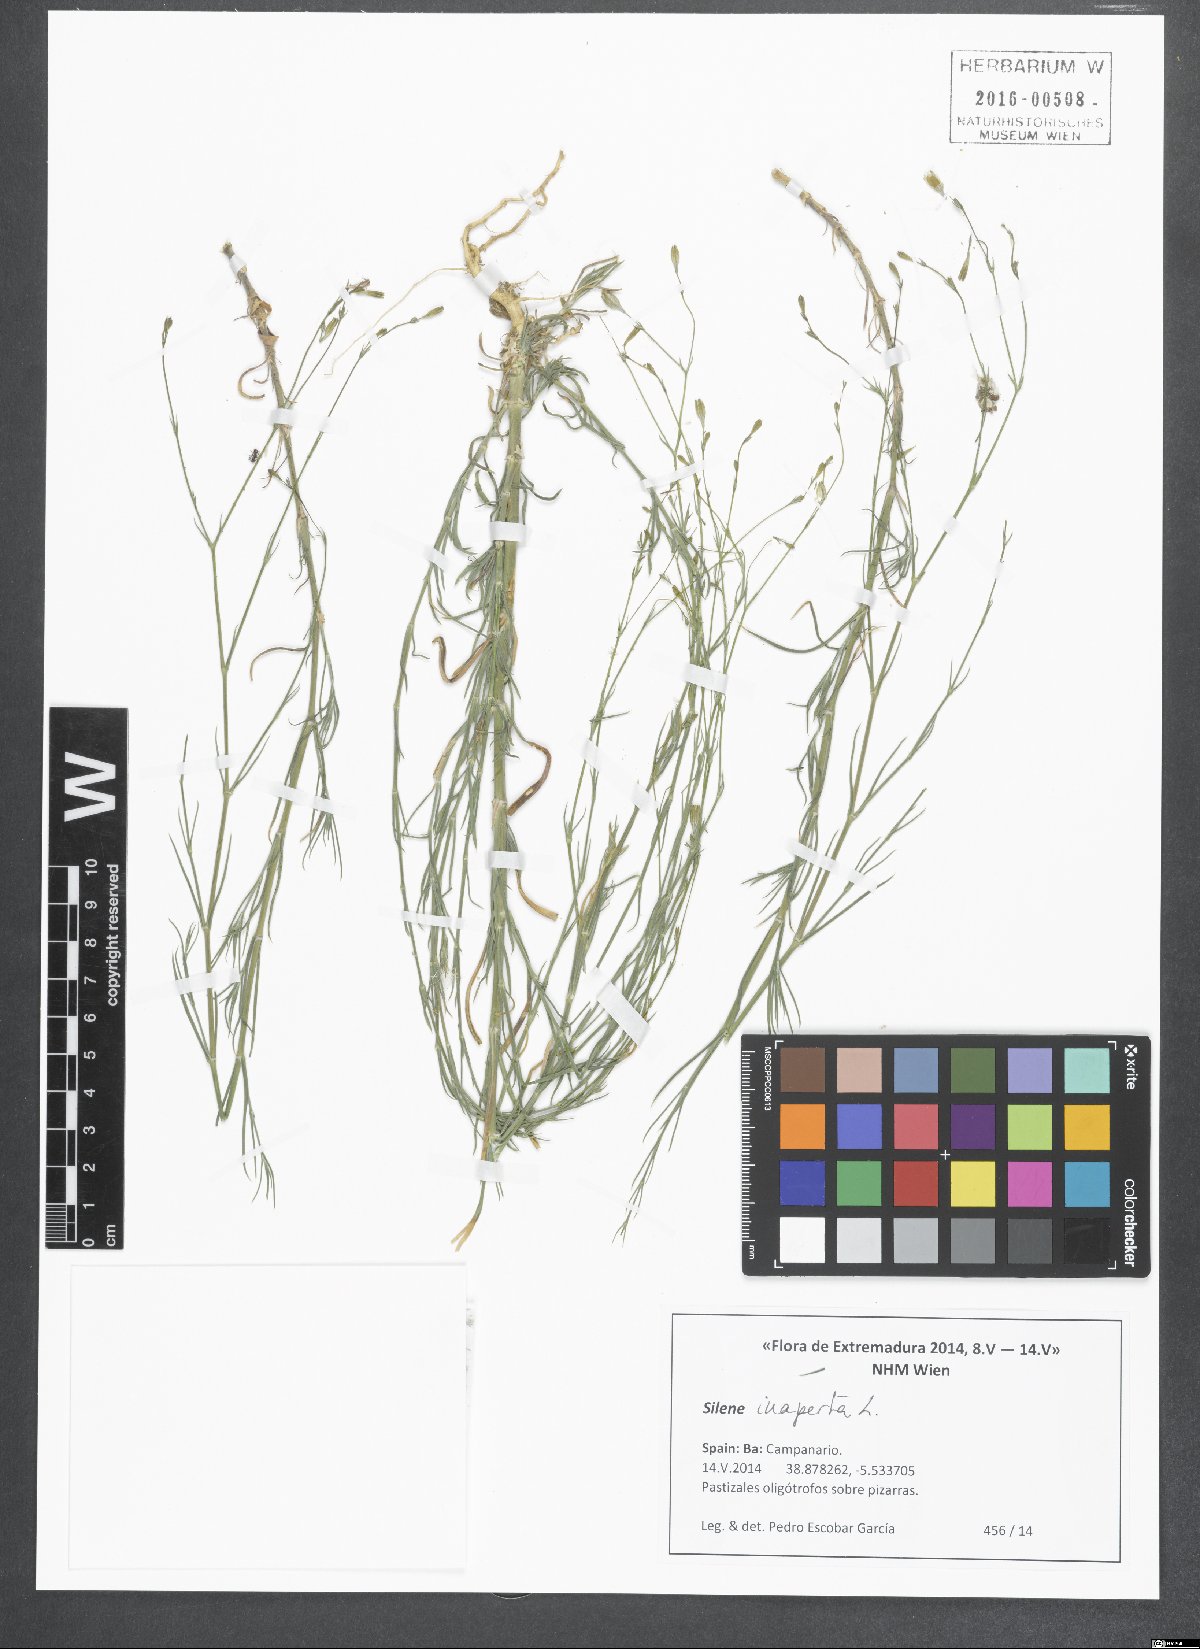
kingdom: Plantae
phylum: Tracheophyta
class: Magnoliopsida
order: Caryophyllales
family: Caryophyllaceae
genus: Silene
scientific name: Silene inaperta
